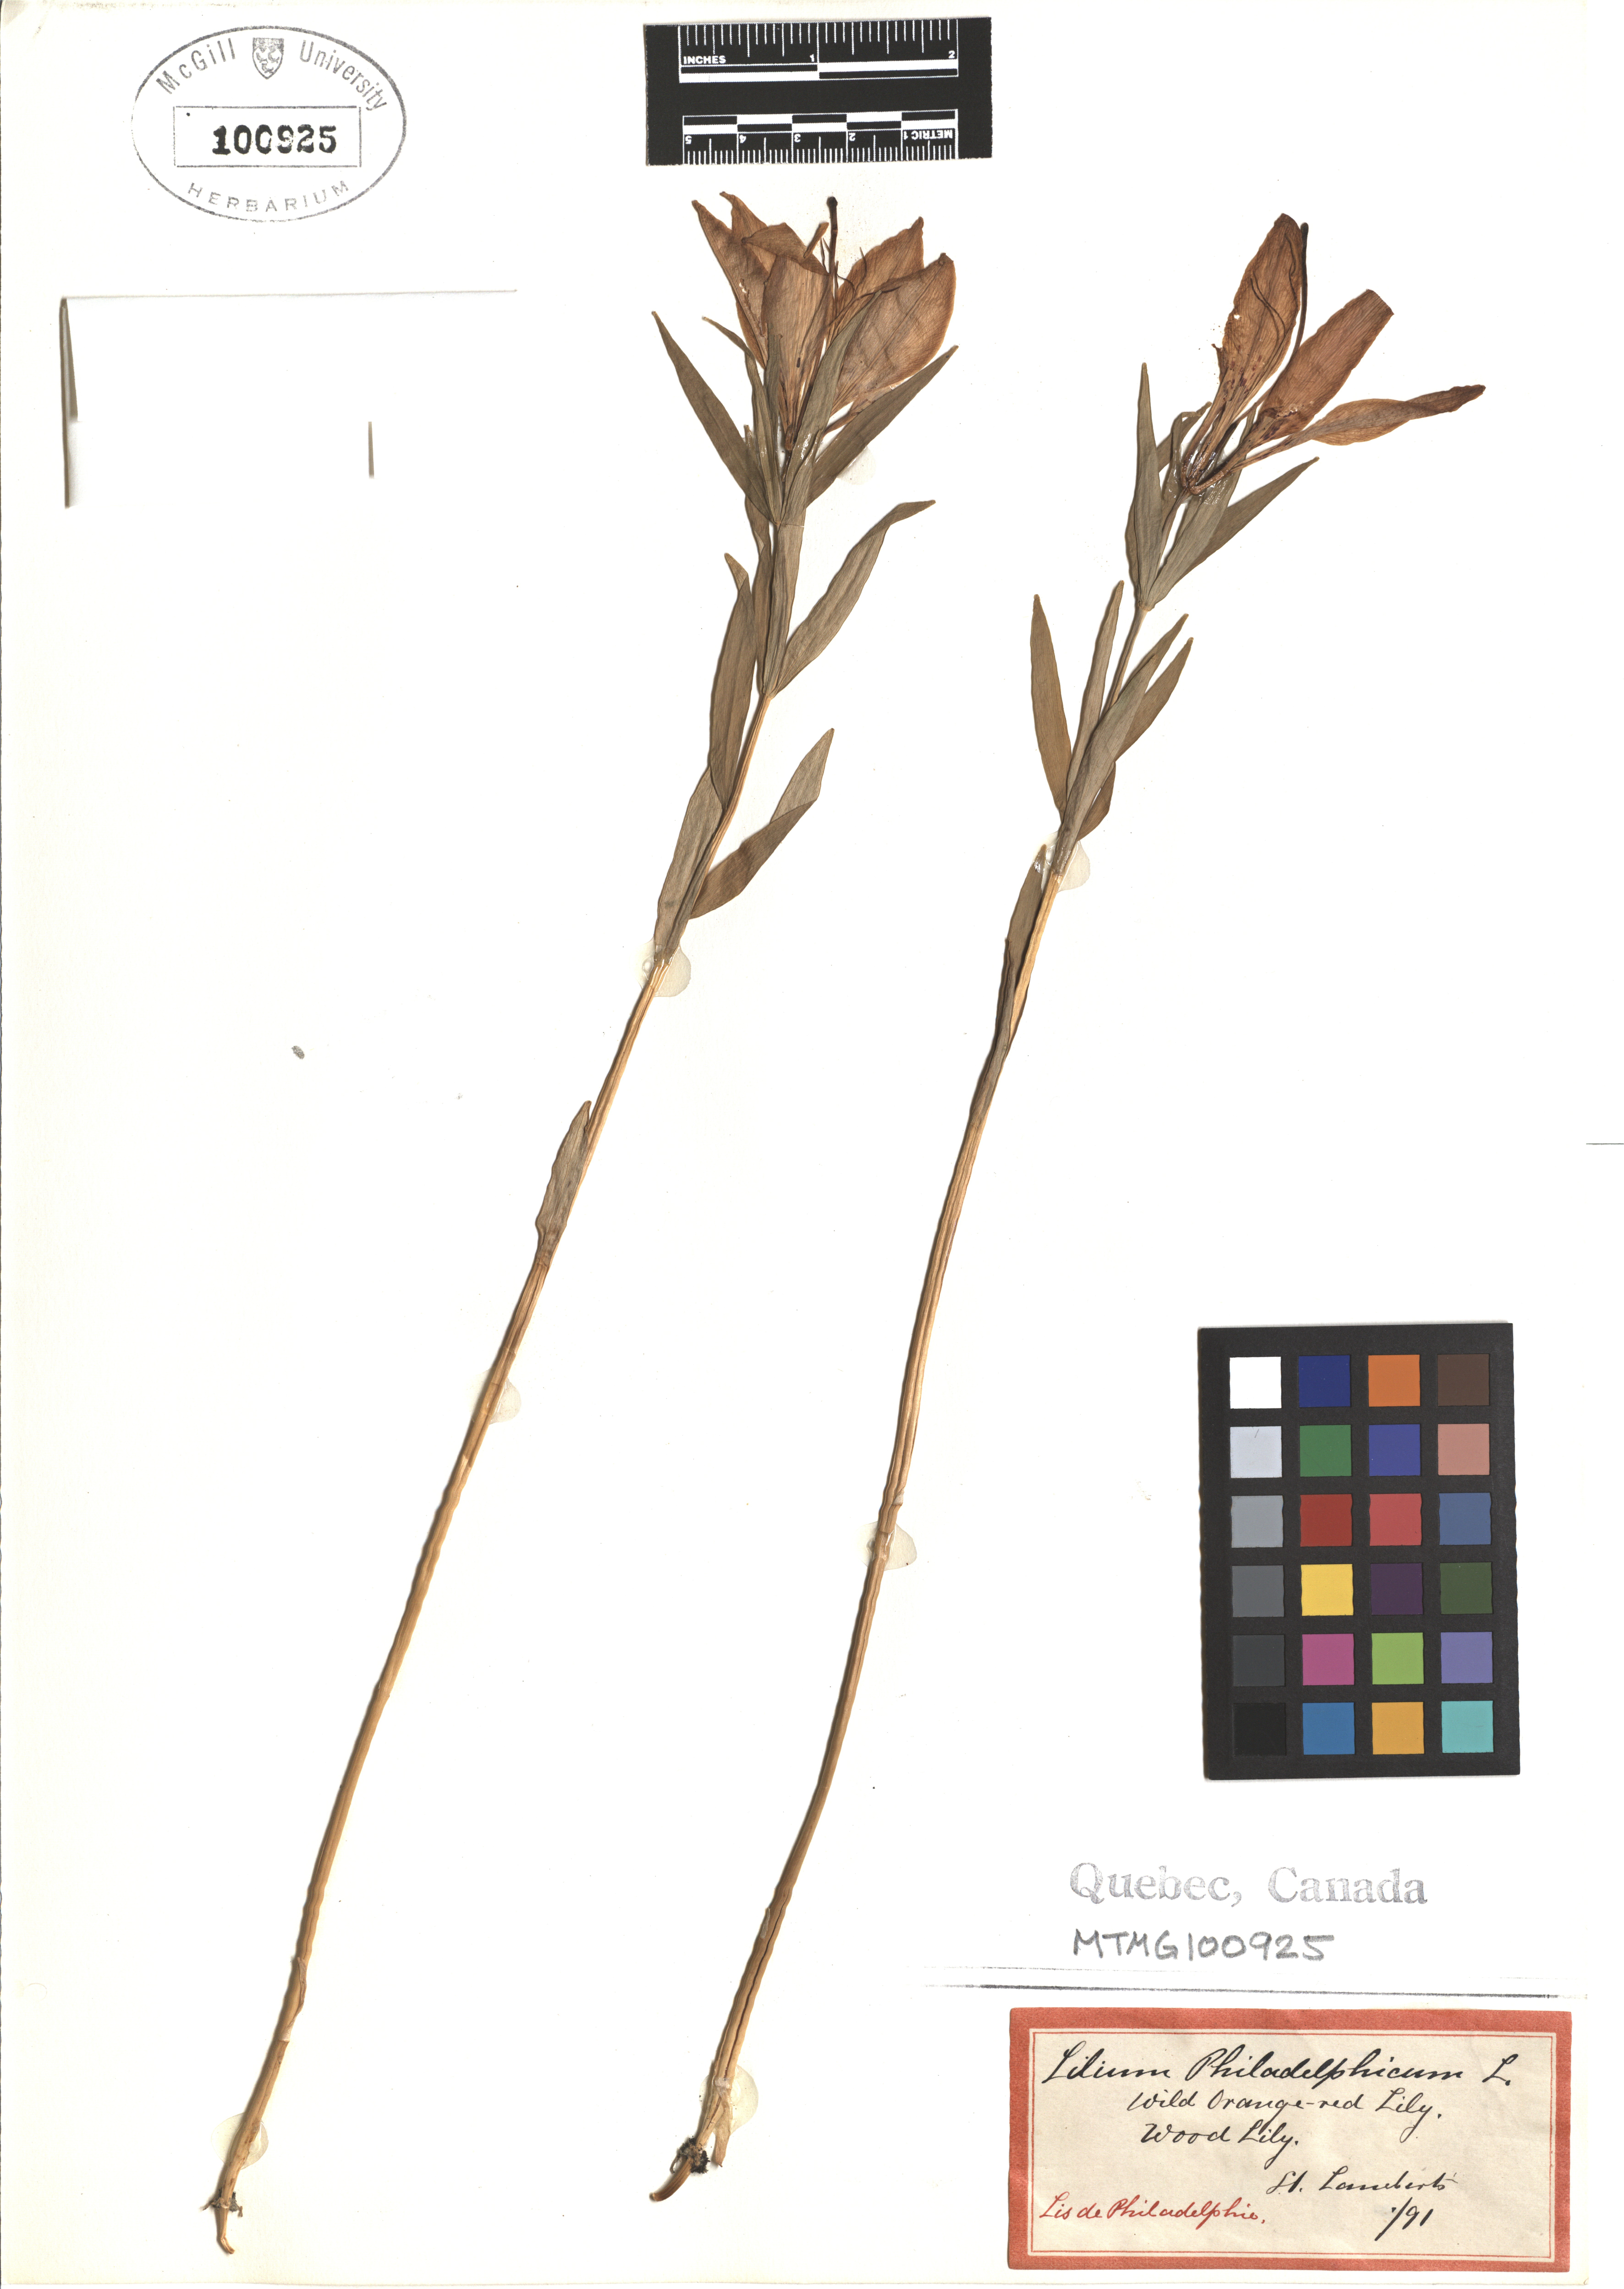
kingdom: Plantae
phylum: Tracheophyta
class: Liliopsida
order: Liliales
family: Liliaceae
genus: Lilium
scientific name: Lilium philadelphicum
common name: Red lily
